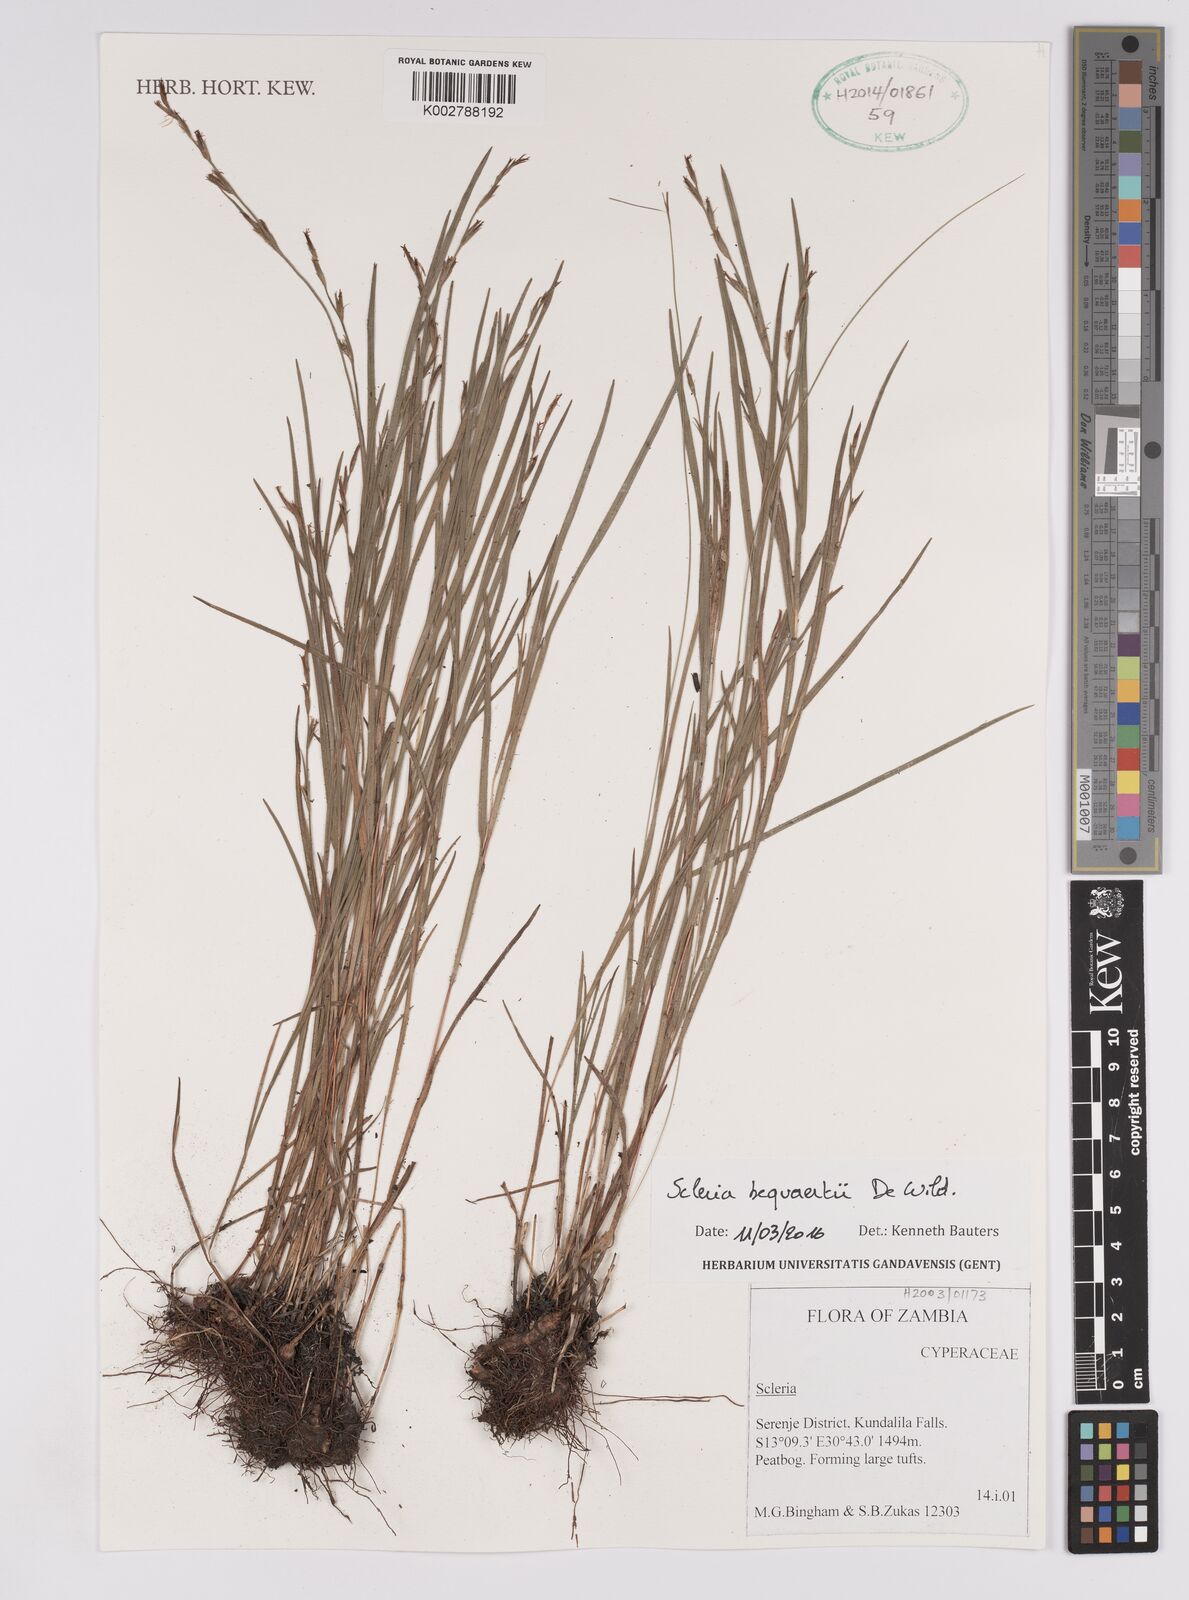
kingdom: Plantae
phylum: Tracheophyta
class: Liliopsida
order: Poales
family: Cyperaceae
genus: Scleria
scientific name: Scleria bequaertii
